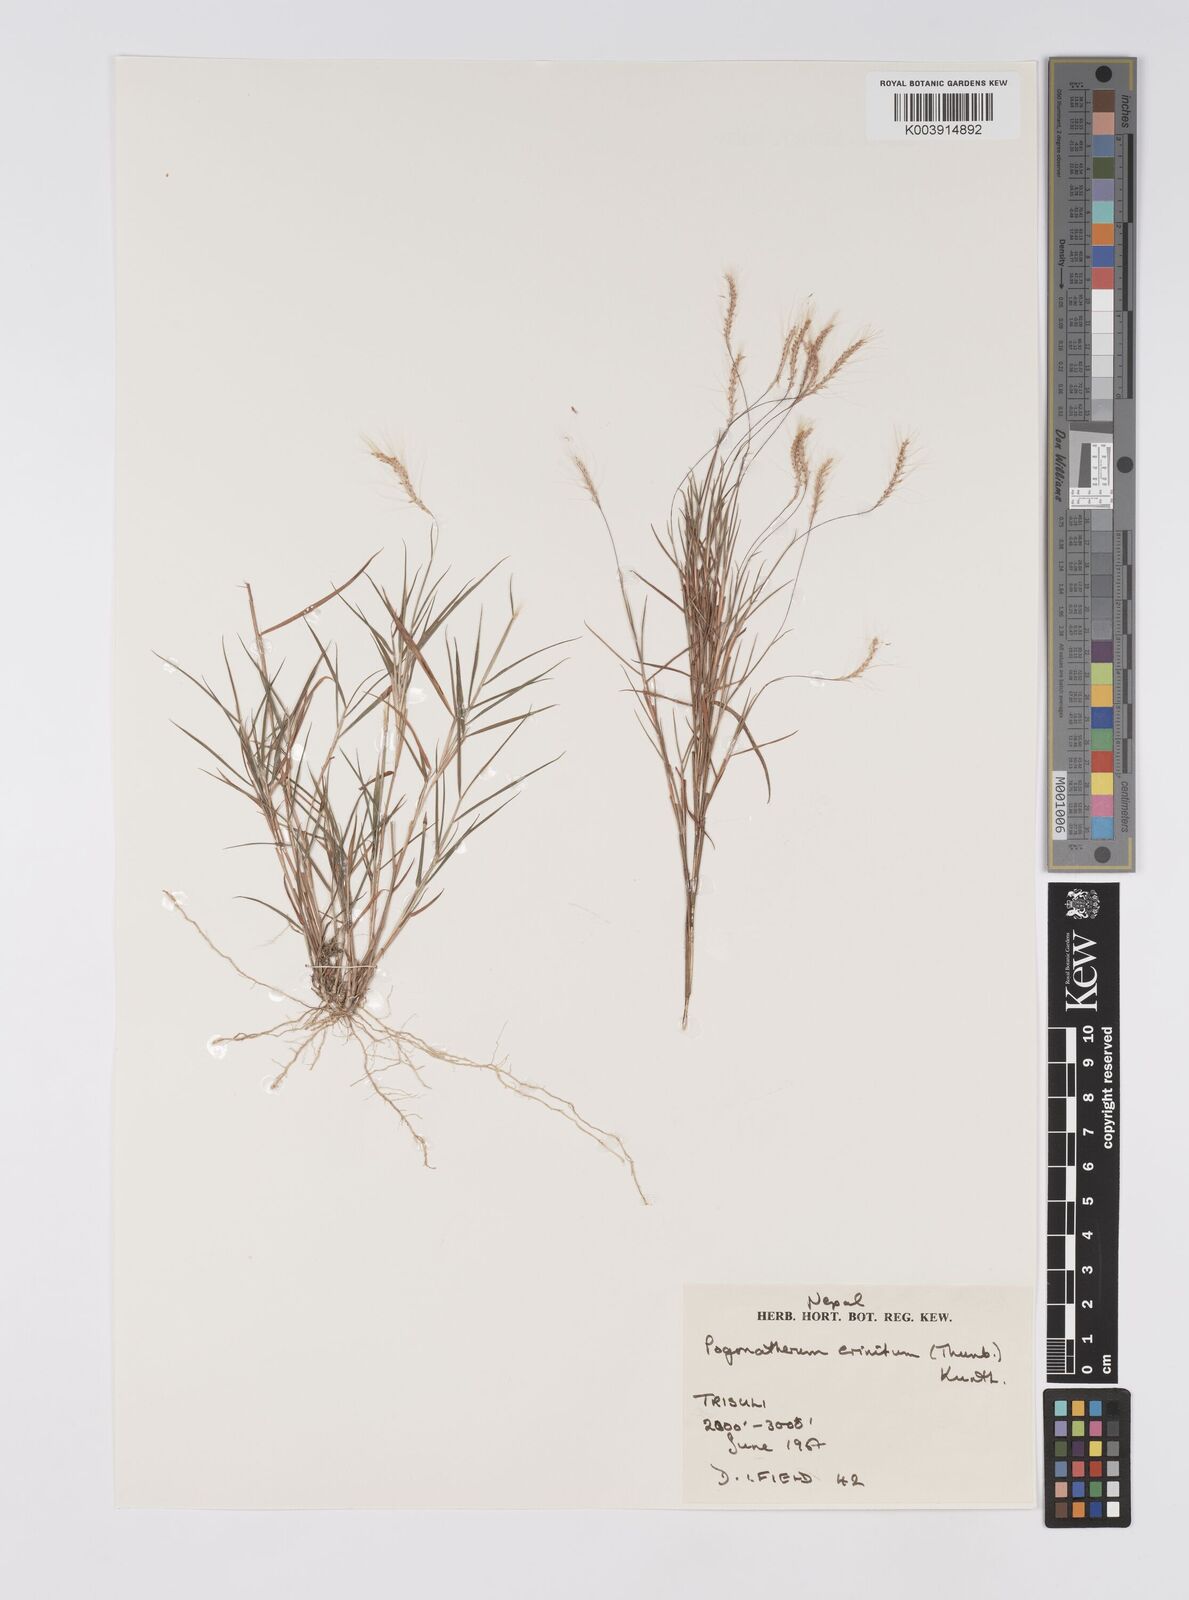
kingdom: Plantae
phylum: Tracheophyta
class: Liliopsida
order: Poales
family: Poaceae
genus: Pogonatherum
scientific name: Pogonatherum paniceum
